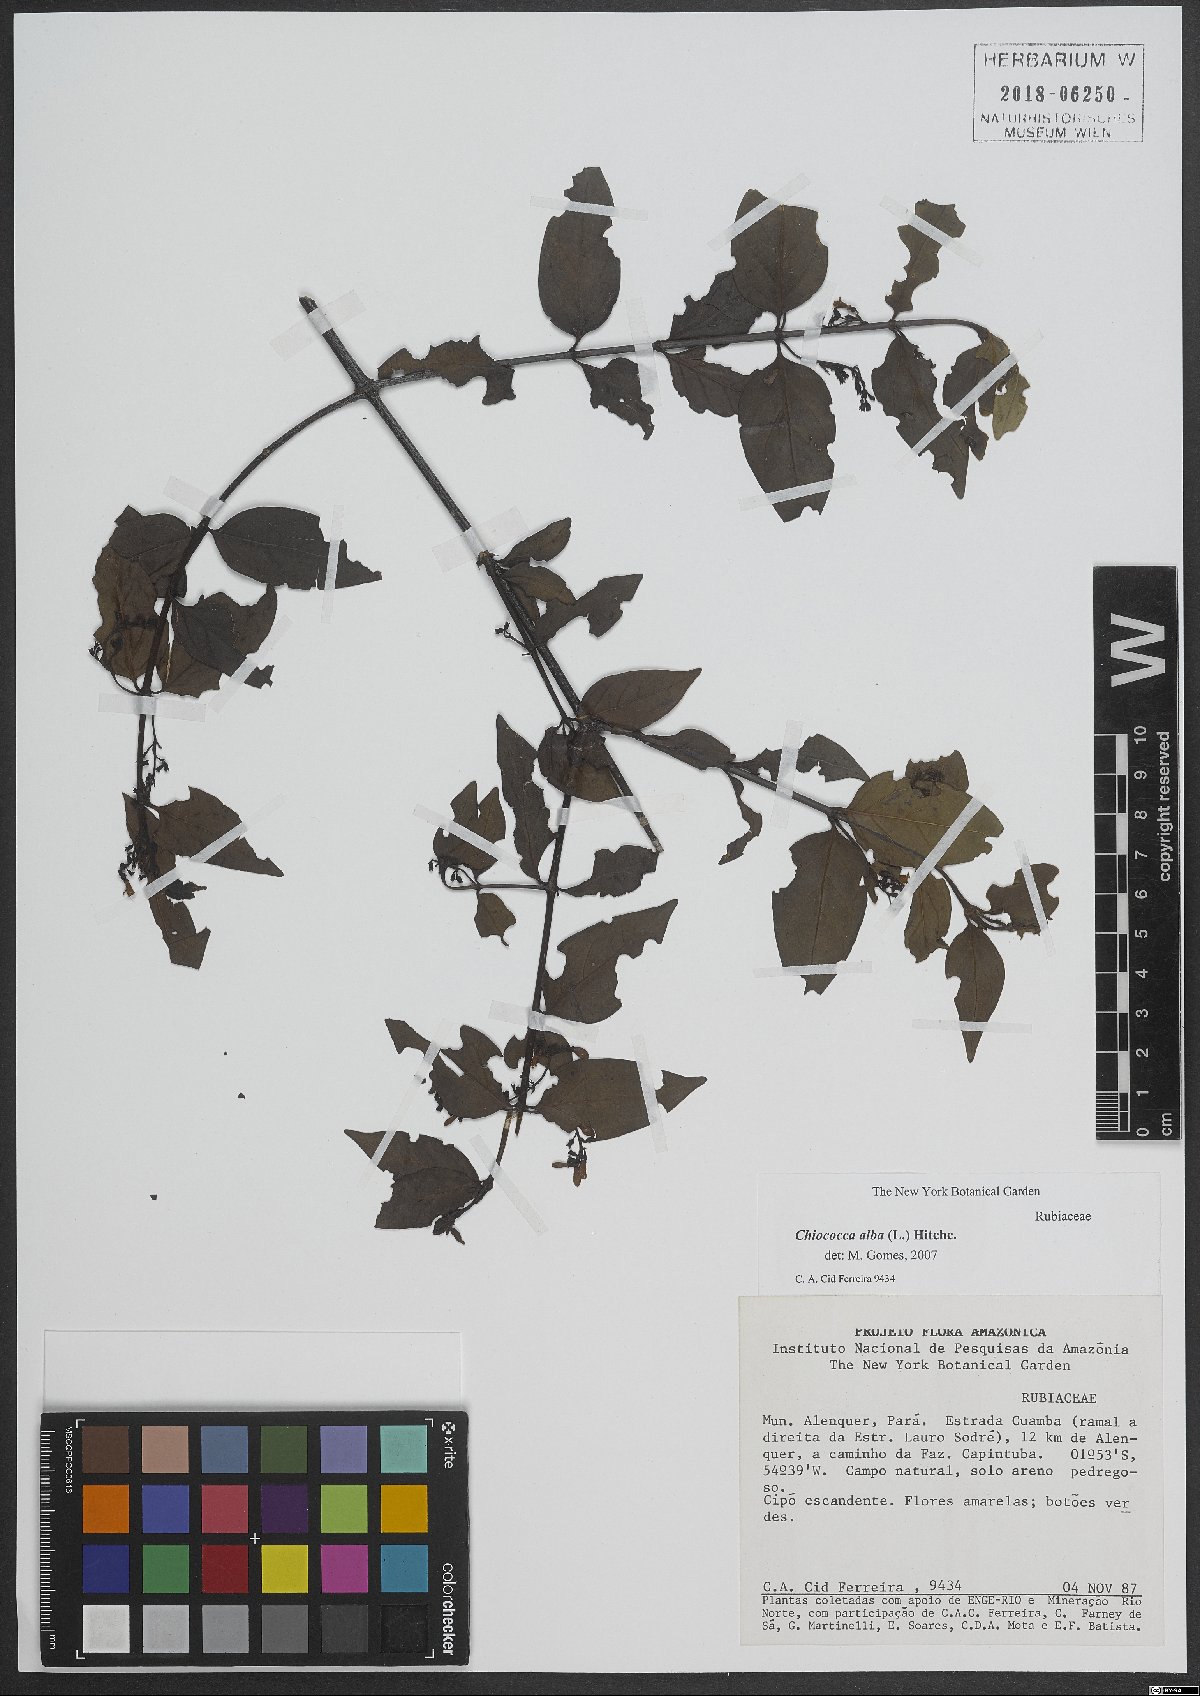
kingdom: Plantae
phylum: Tracheophyta
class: Magnoliopsida
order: Gentianales
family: Rubiaceae
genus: Chiococca
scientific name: Chiococca alba
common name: Snowberry
